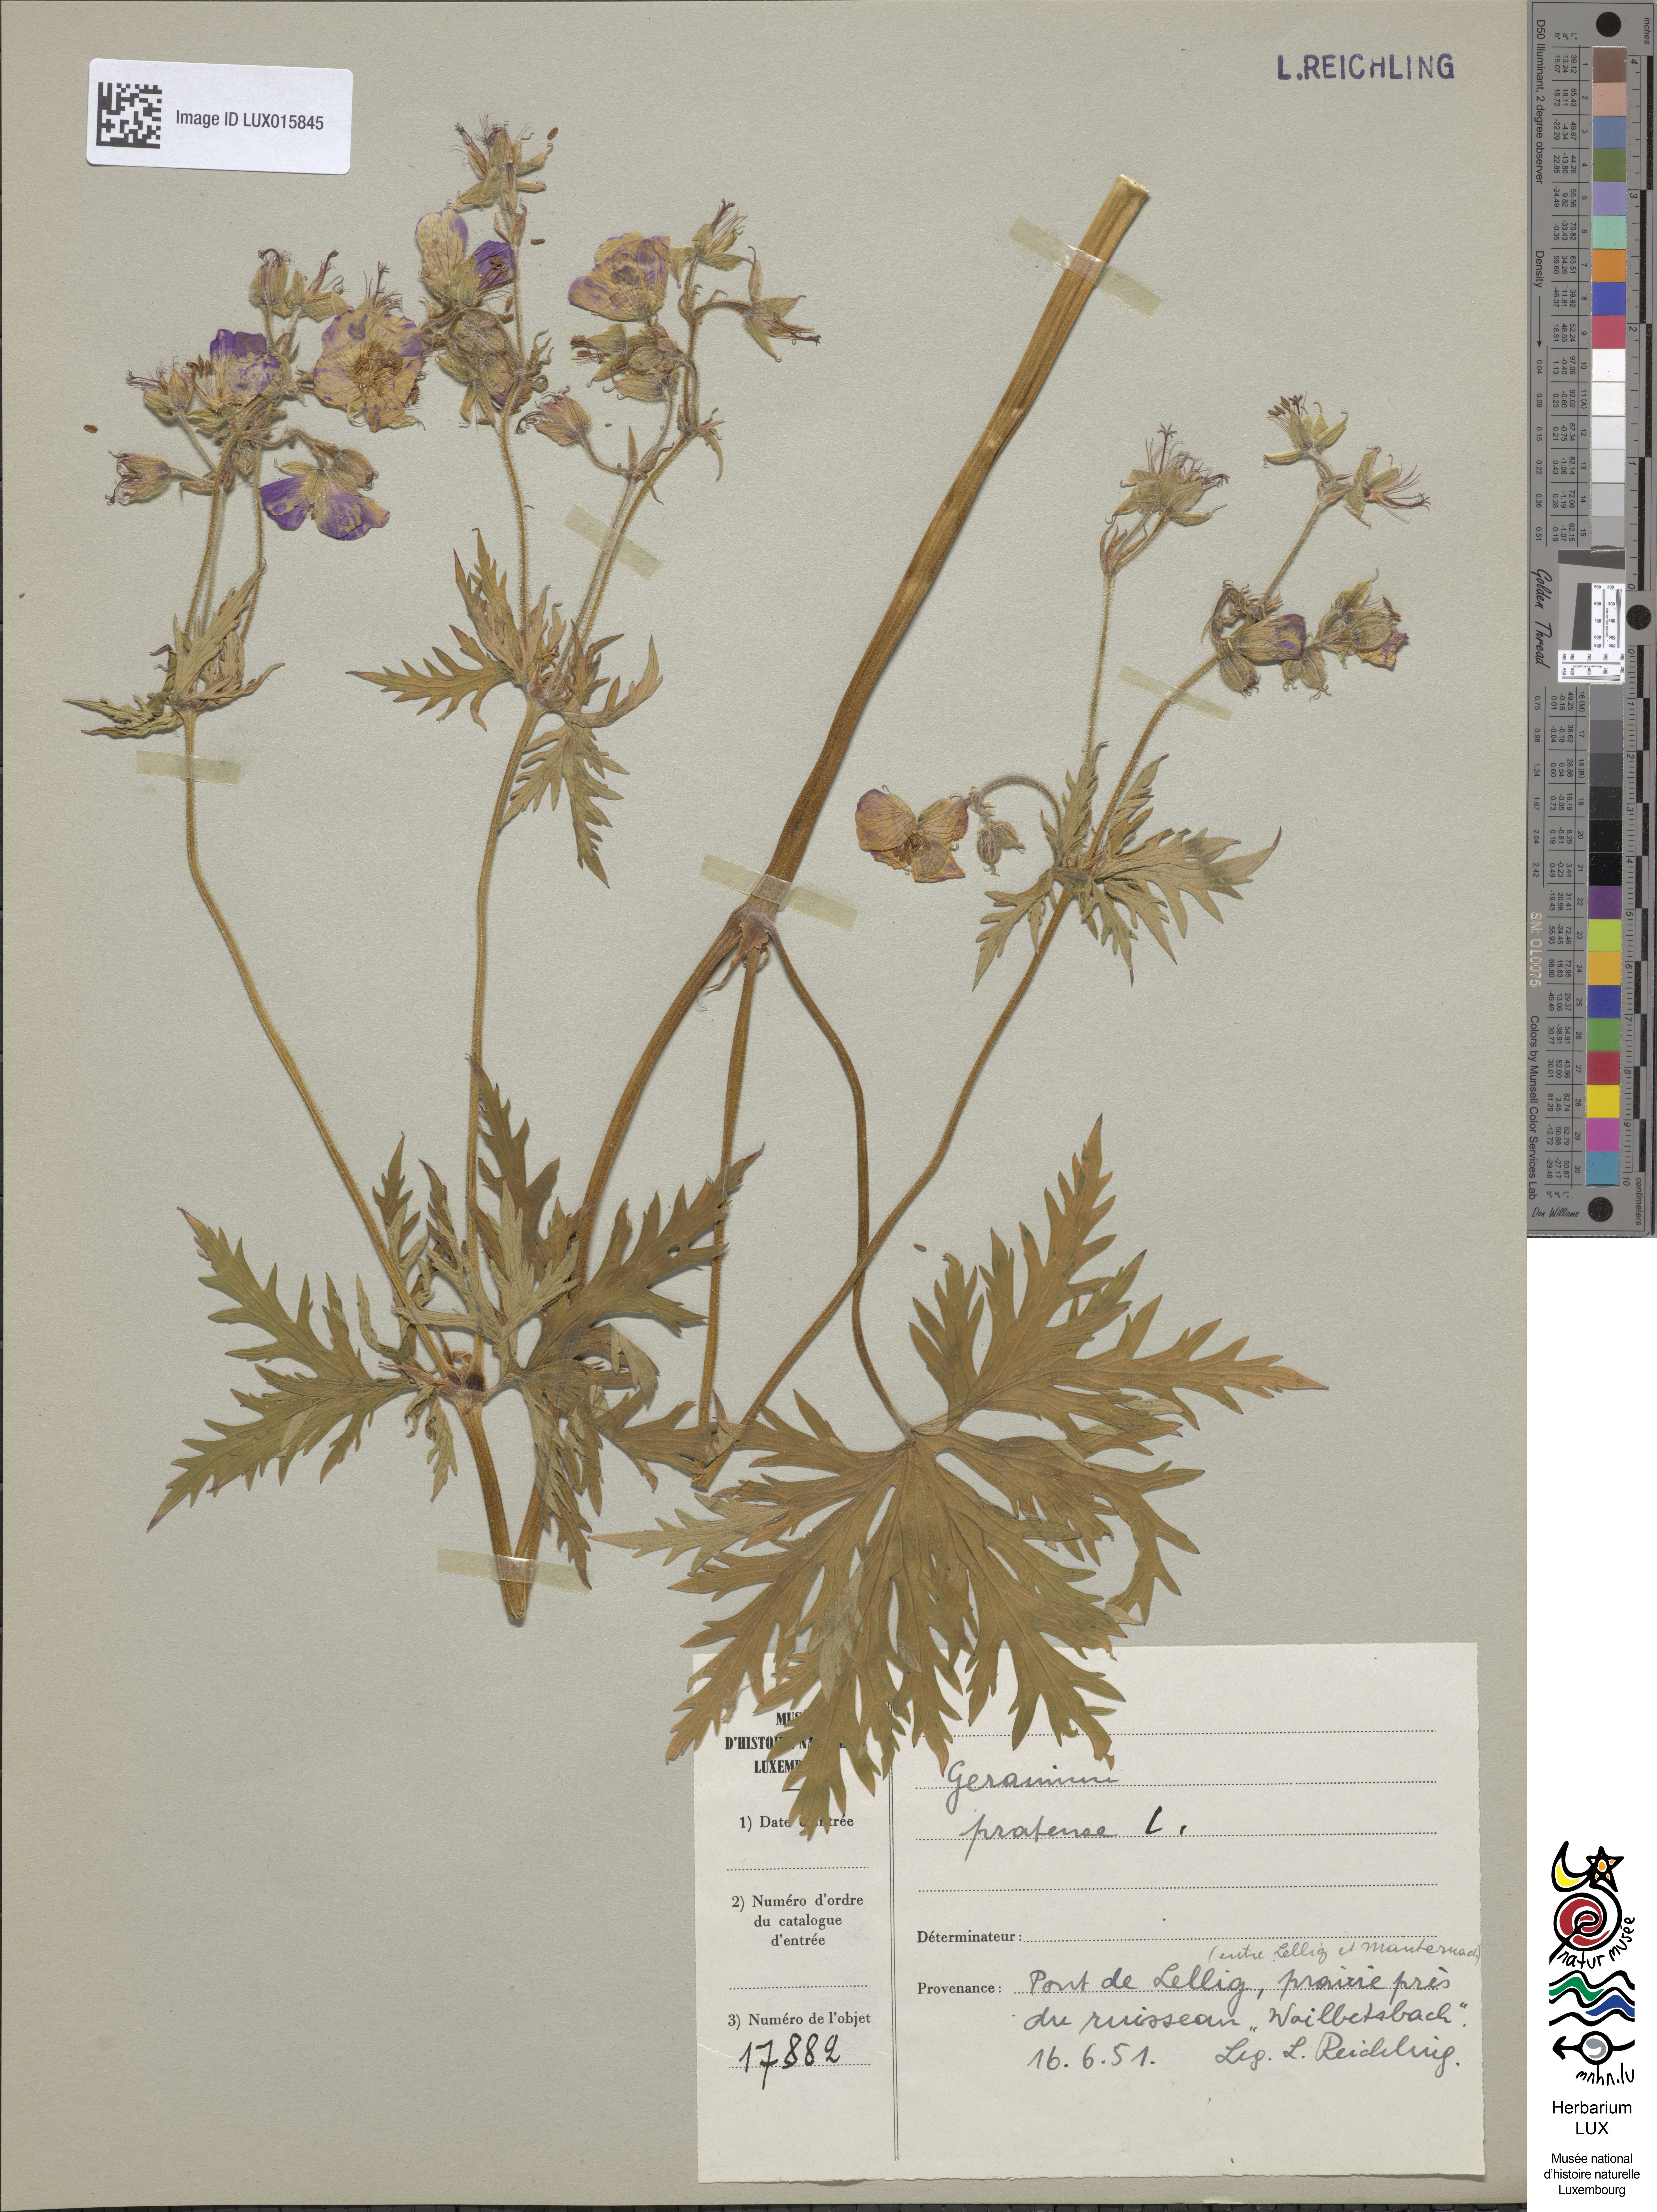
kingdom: Plantae
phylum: Tracheophyta
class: Magnoliopsida
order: Geraniales
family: Geraniaceae
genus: Geranium
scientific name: Geranium pratense
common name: Meadow crane's-bill
